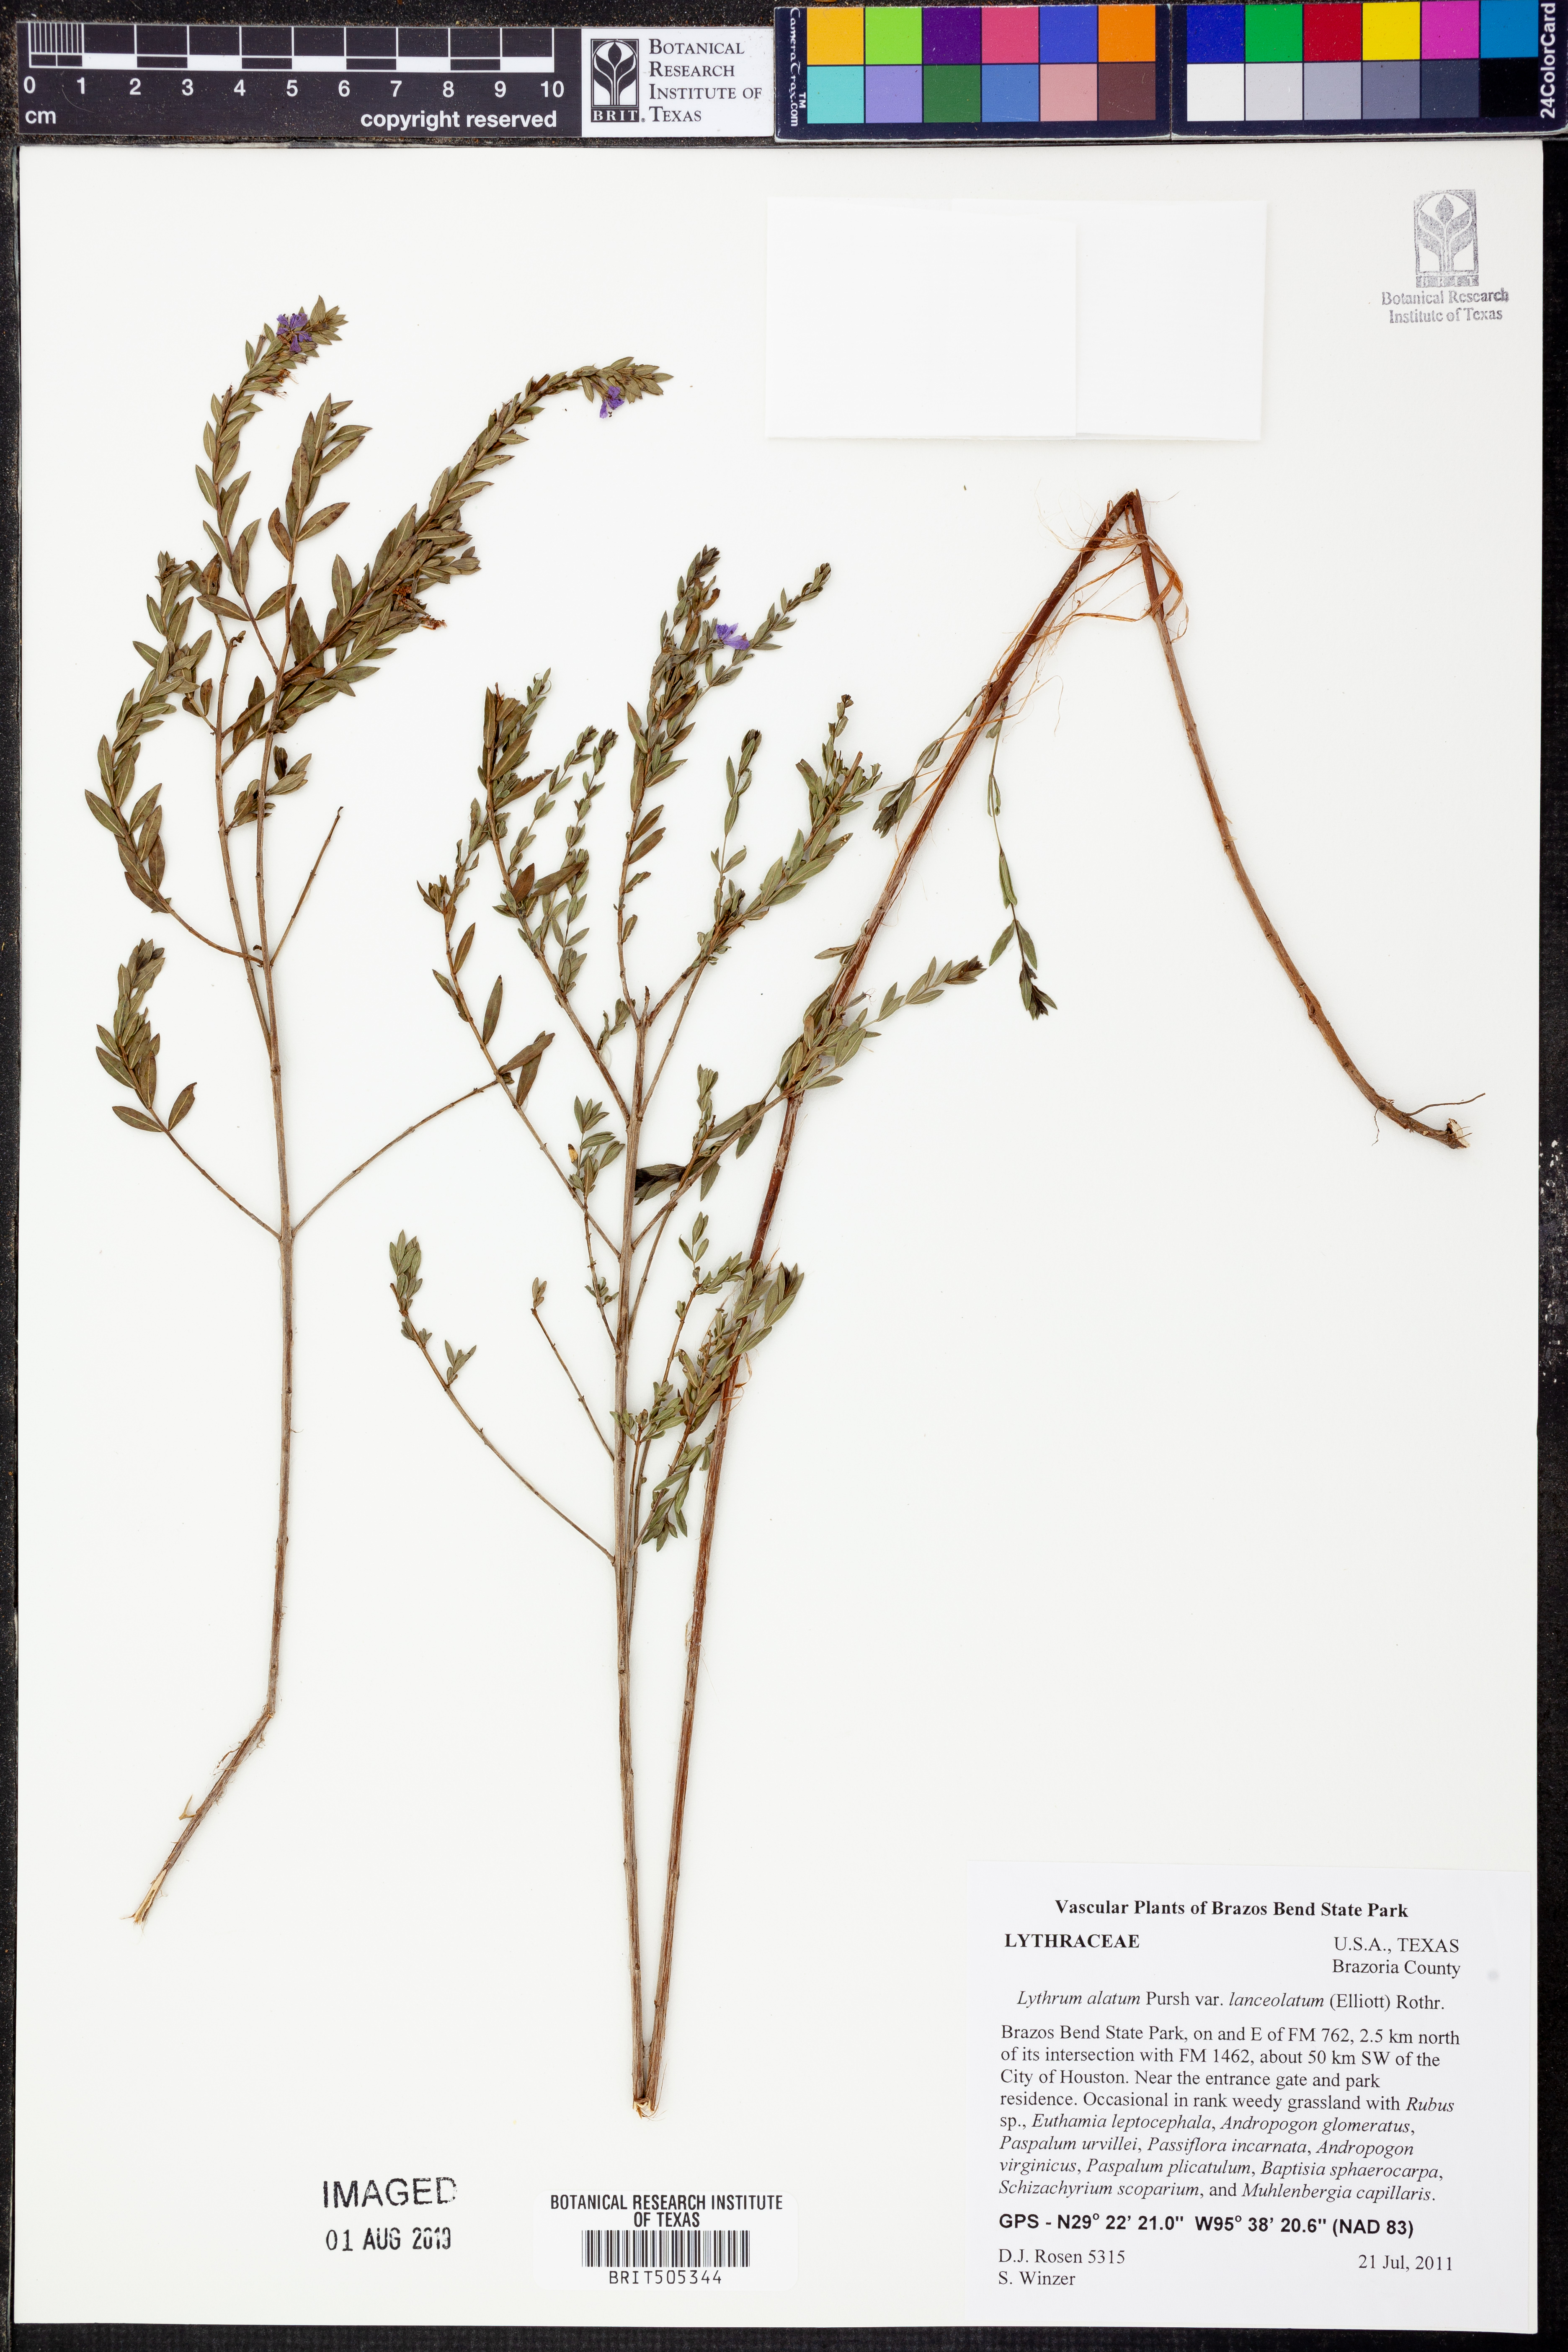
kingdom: Plantae
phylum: Tracheophyta
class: Magnoliopsida
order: Myrtales
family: Lythraceae
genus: Lythrum
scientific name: Lythrum alatum
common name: Winged loosestrife
